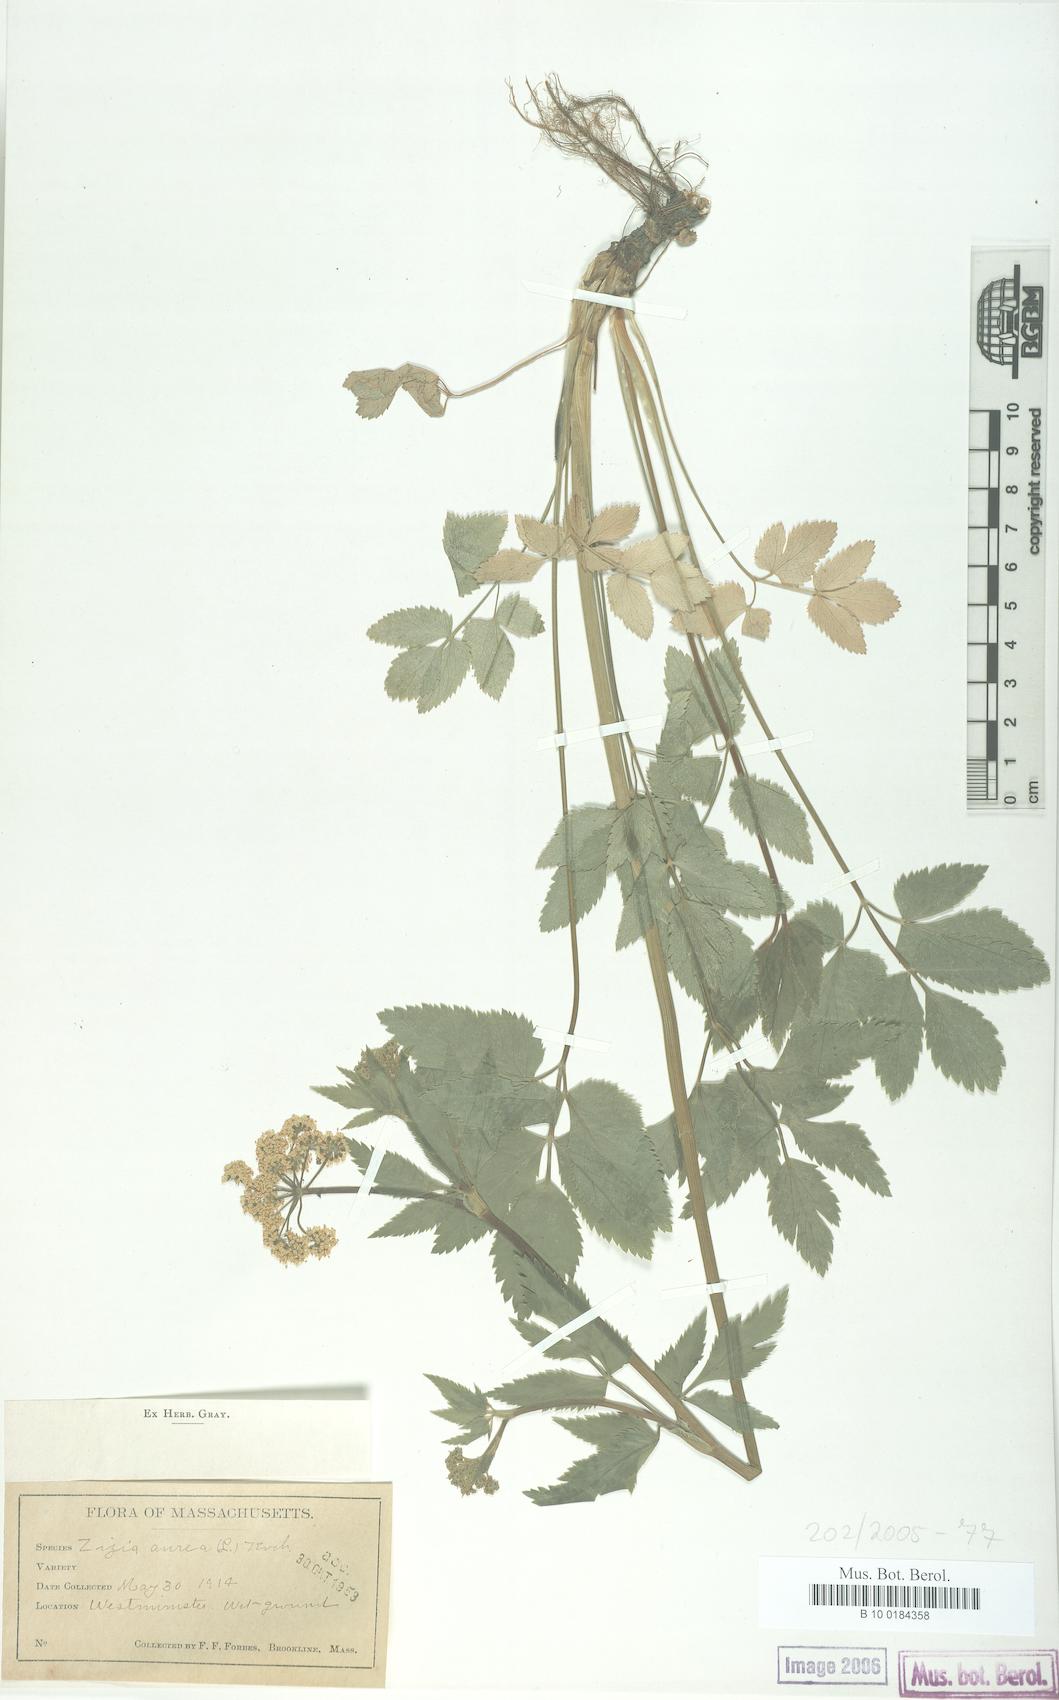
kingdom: Plantae
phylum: Tracheophyta
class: Magnoliopsida
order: Apiales
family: Apiaceae
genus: Zizia
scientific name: Zizia aurea
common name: Golden alexanders
